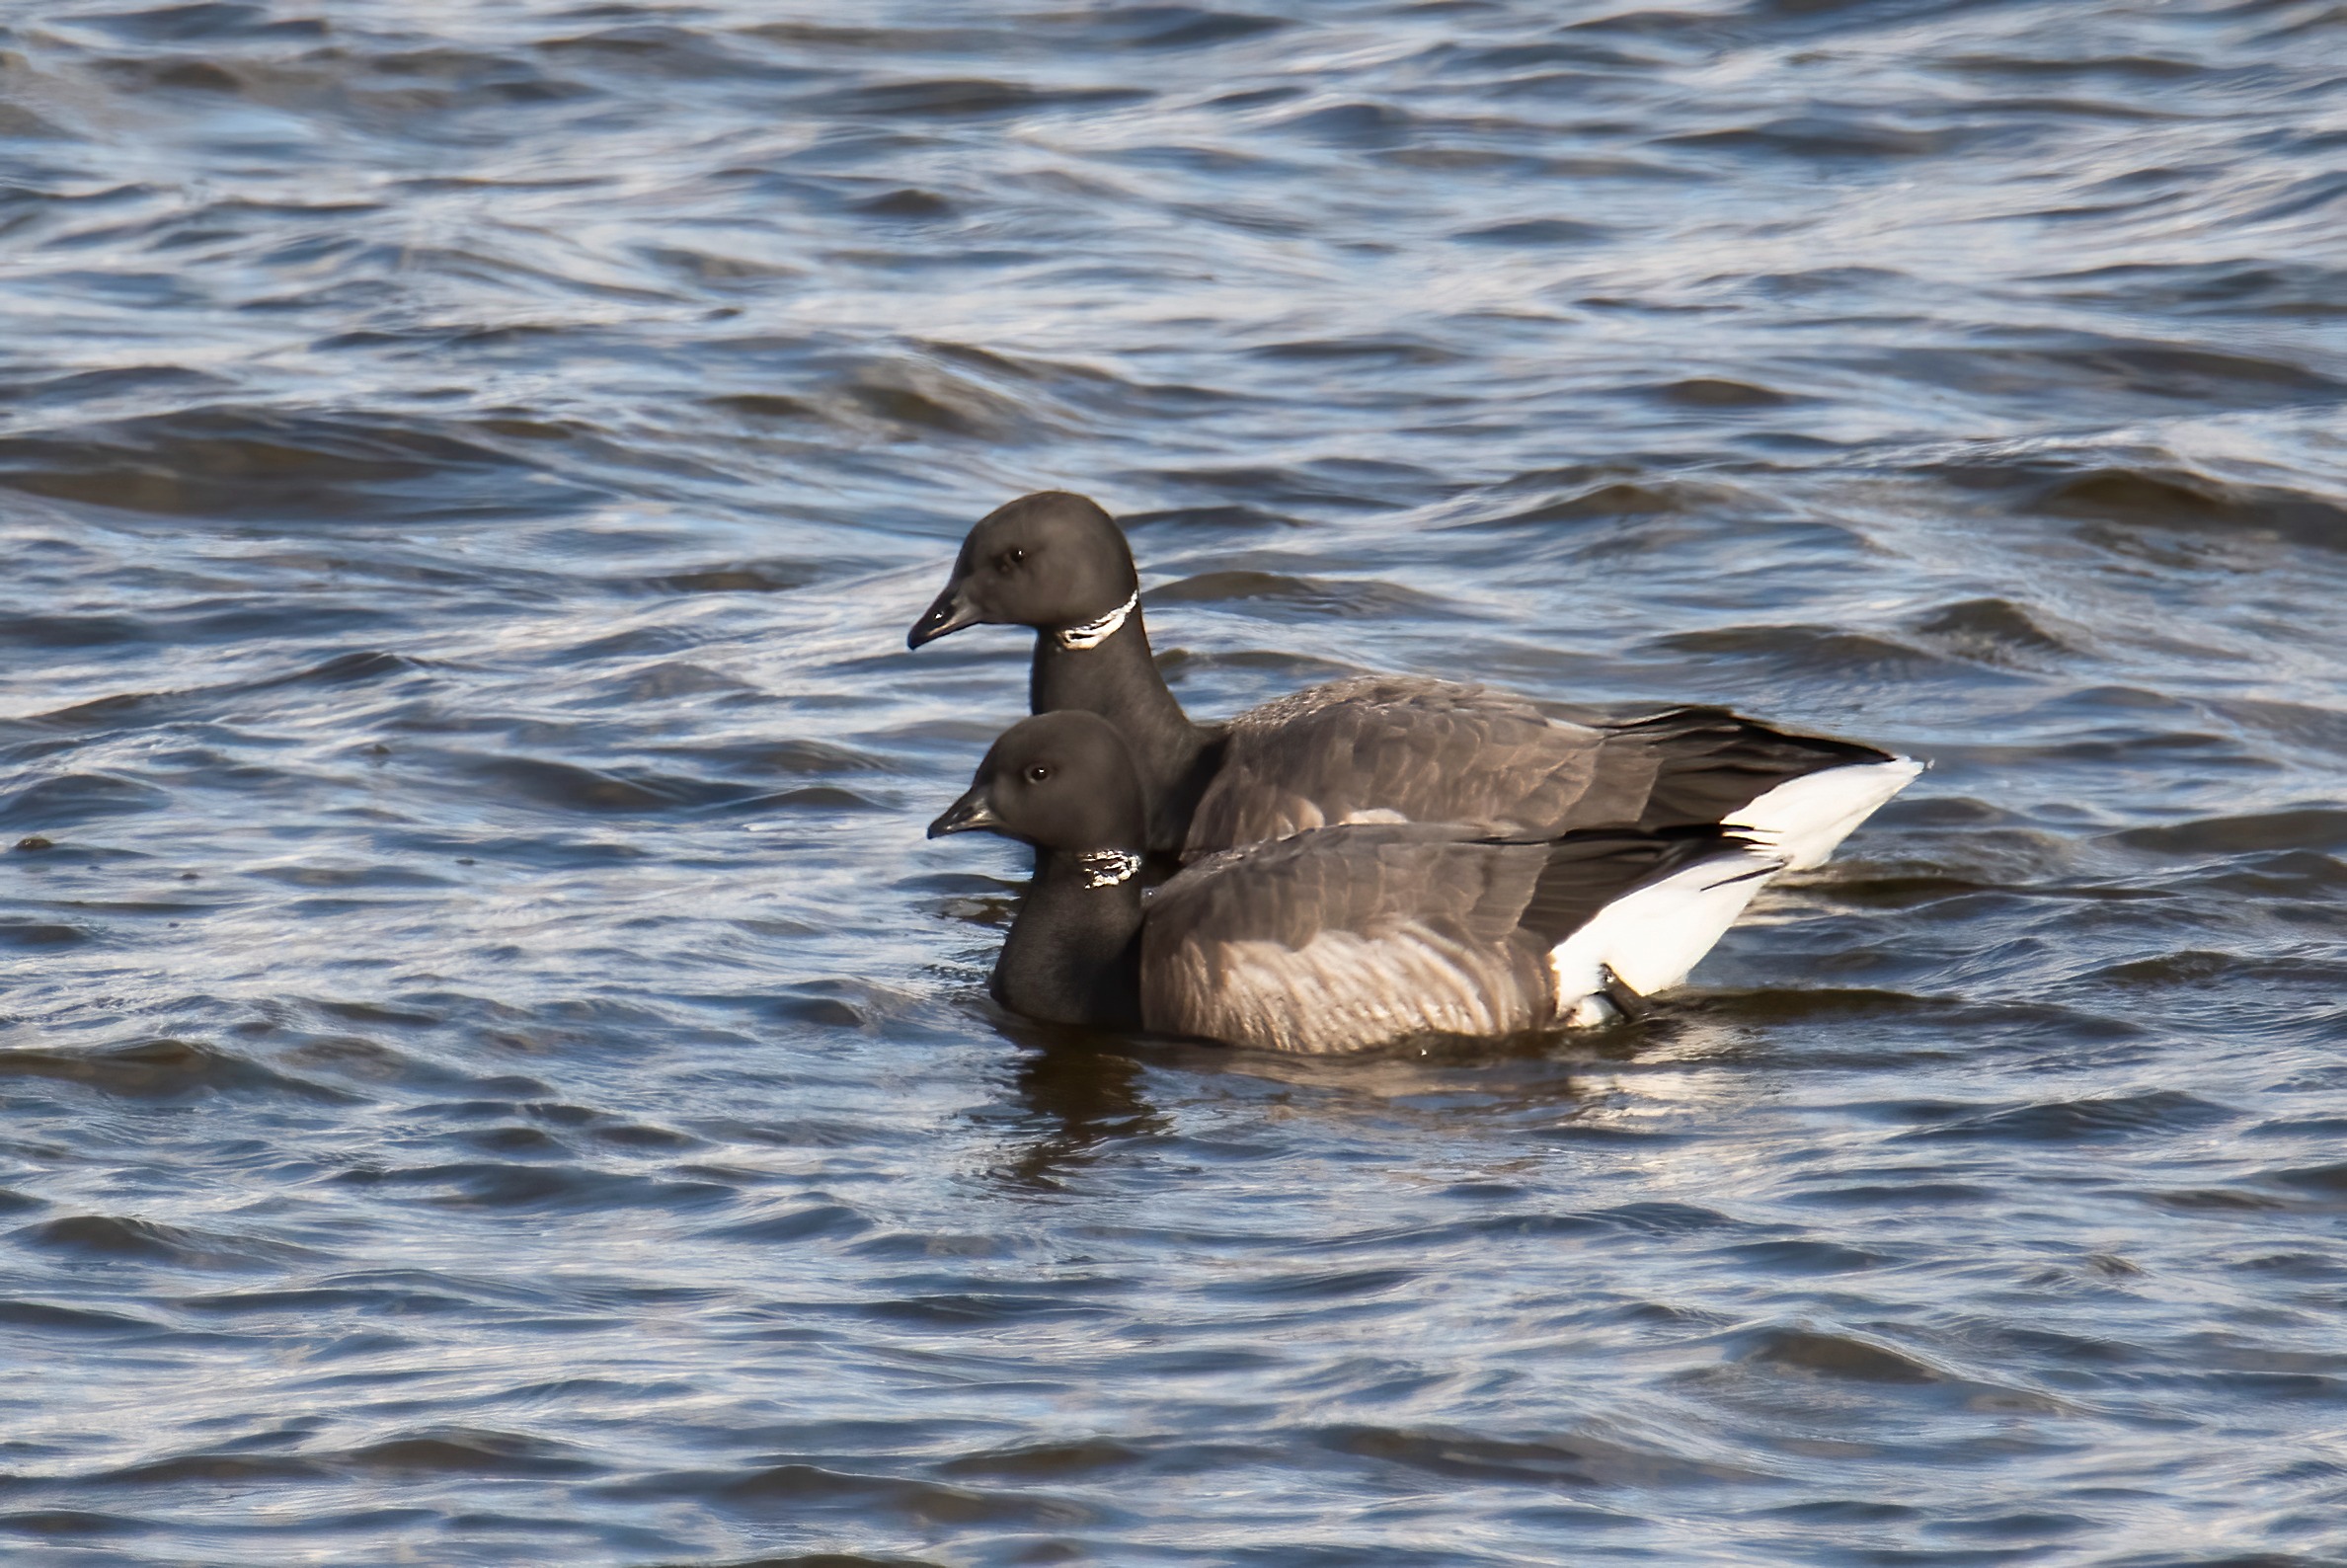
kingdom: Animalia
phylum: Chordata
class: Aves
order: Anseriformes
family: Anatidae
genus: Branta
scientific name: Branta bernicla
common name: Knortegås
